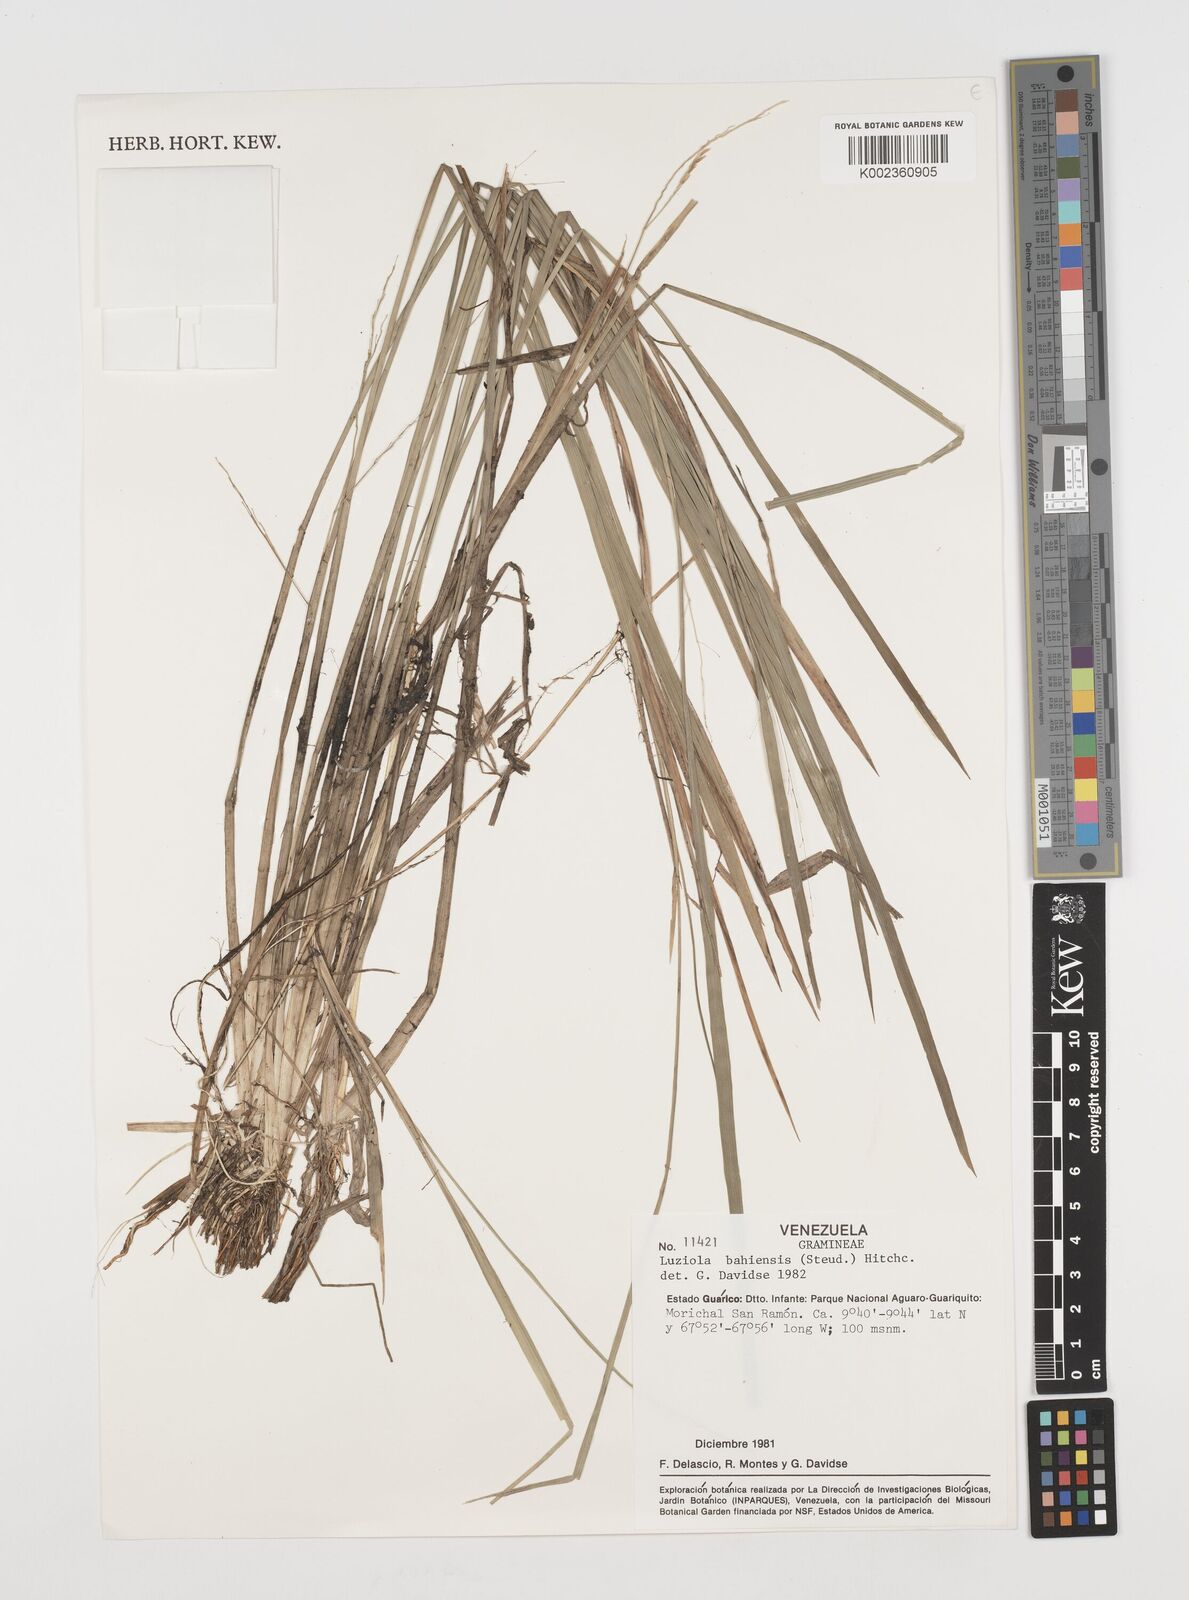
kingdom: Plantae
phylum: Tracheophyta
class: Liliopsida
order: Poales
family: Poaceae
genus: Luziola
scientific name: Luziola bahiensis
